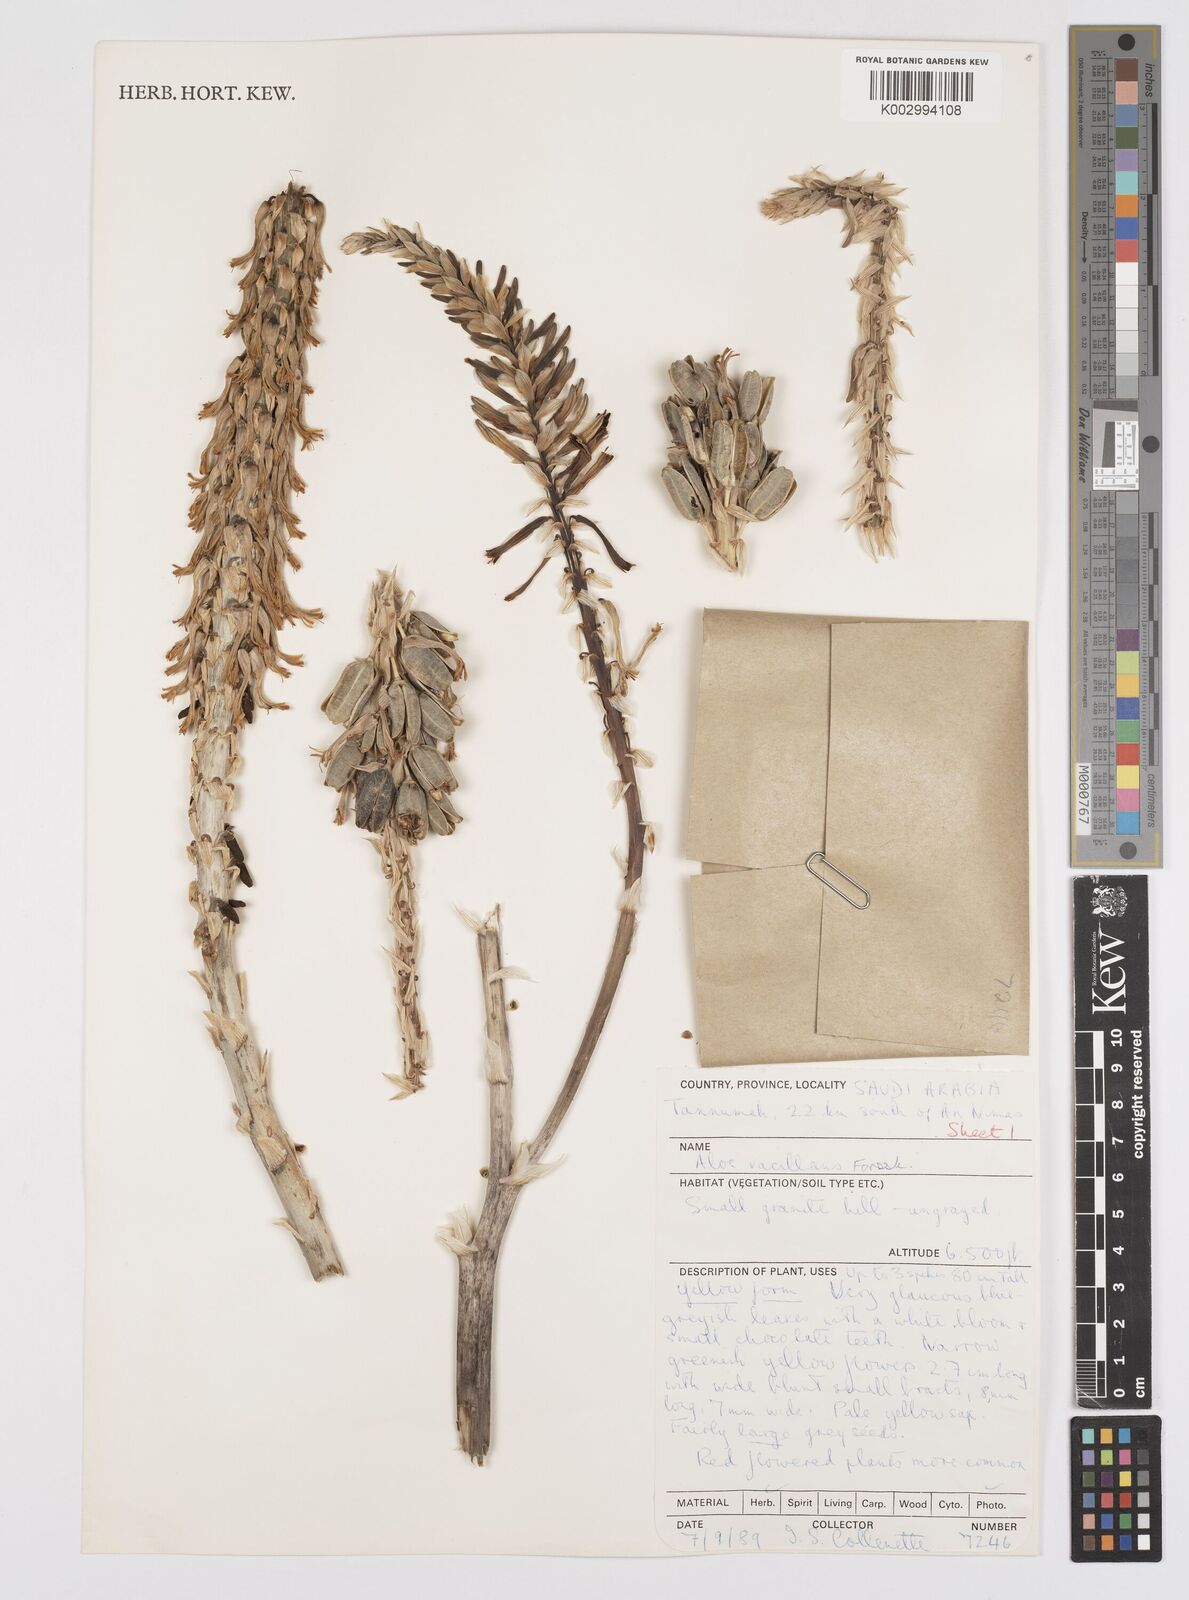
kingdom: Plantae
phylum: Tracheophyta
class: Liliopsida
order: Asparagales
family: Asphodelaceae
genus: Aloe
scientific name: Aloe vacillans
